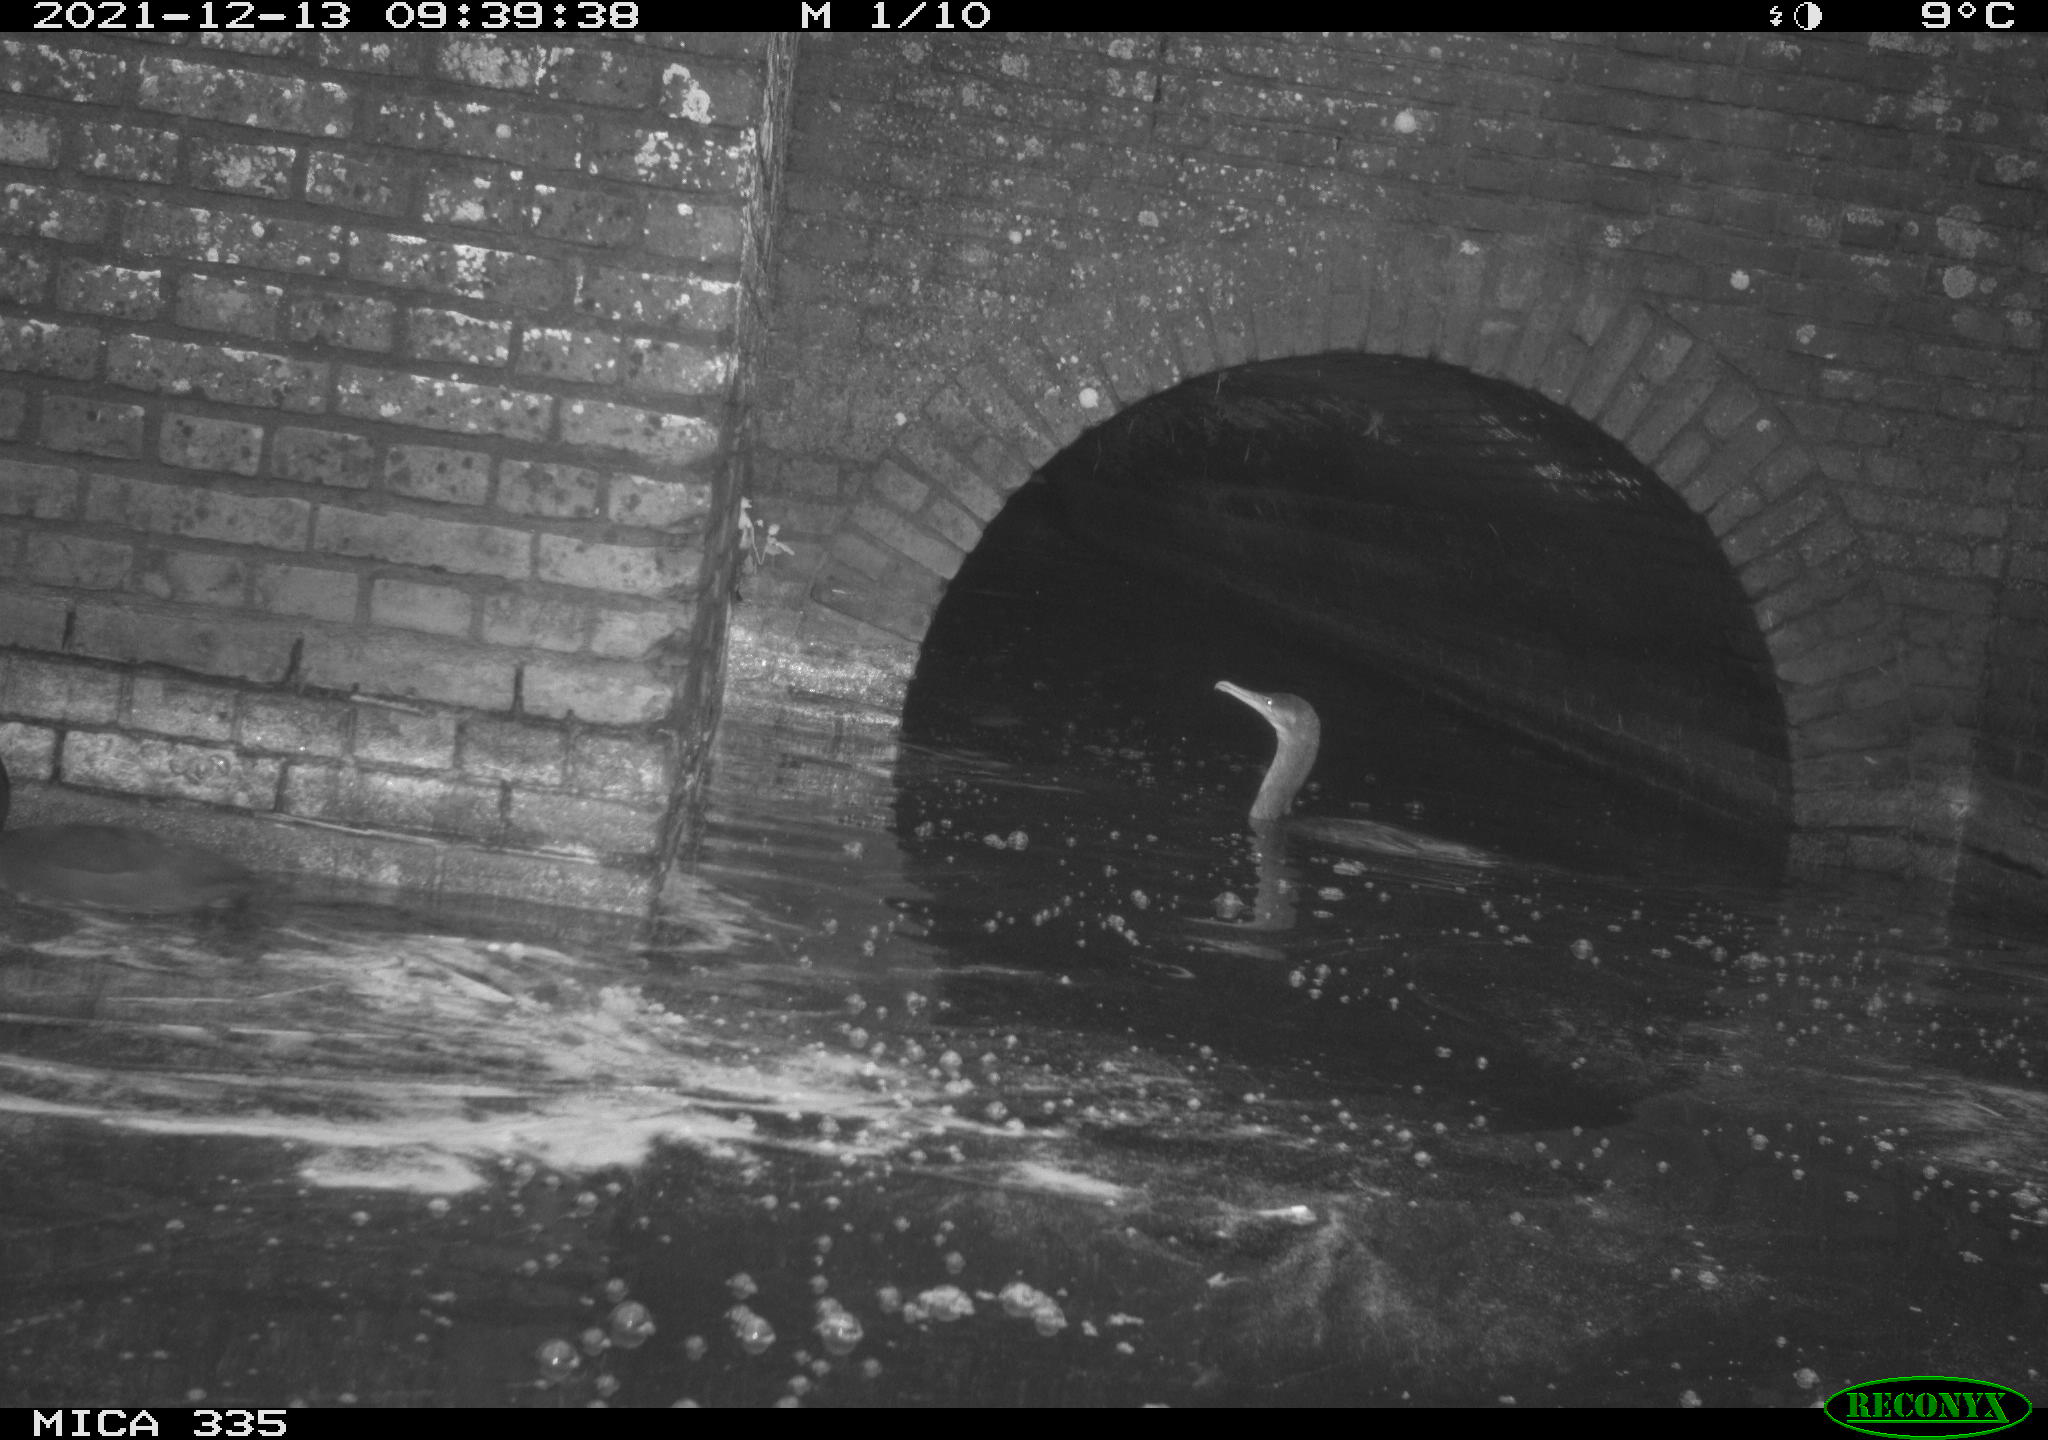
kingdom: Animalia
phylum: Chordata
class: Aves
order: Suliformes
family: Phalacrocoracidae
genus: Phalacrocorax
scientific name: Phalacrocorax carbo
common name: Great cormorant
